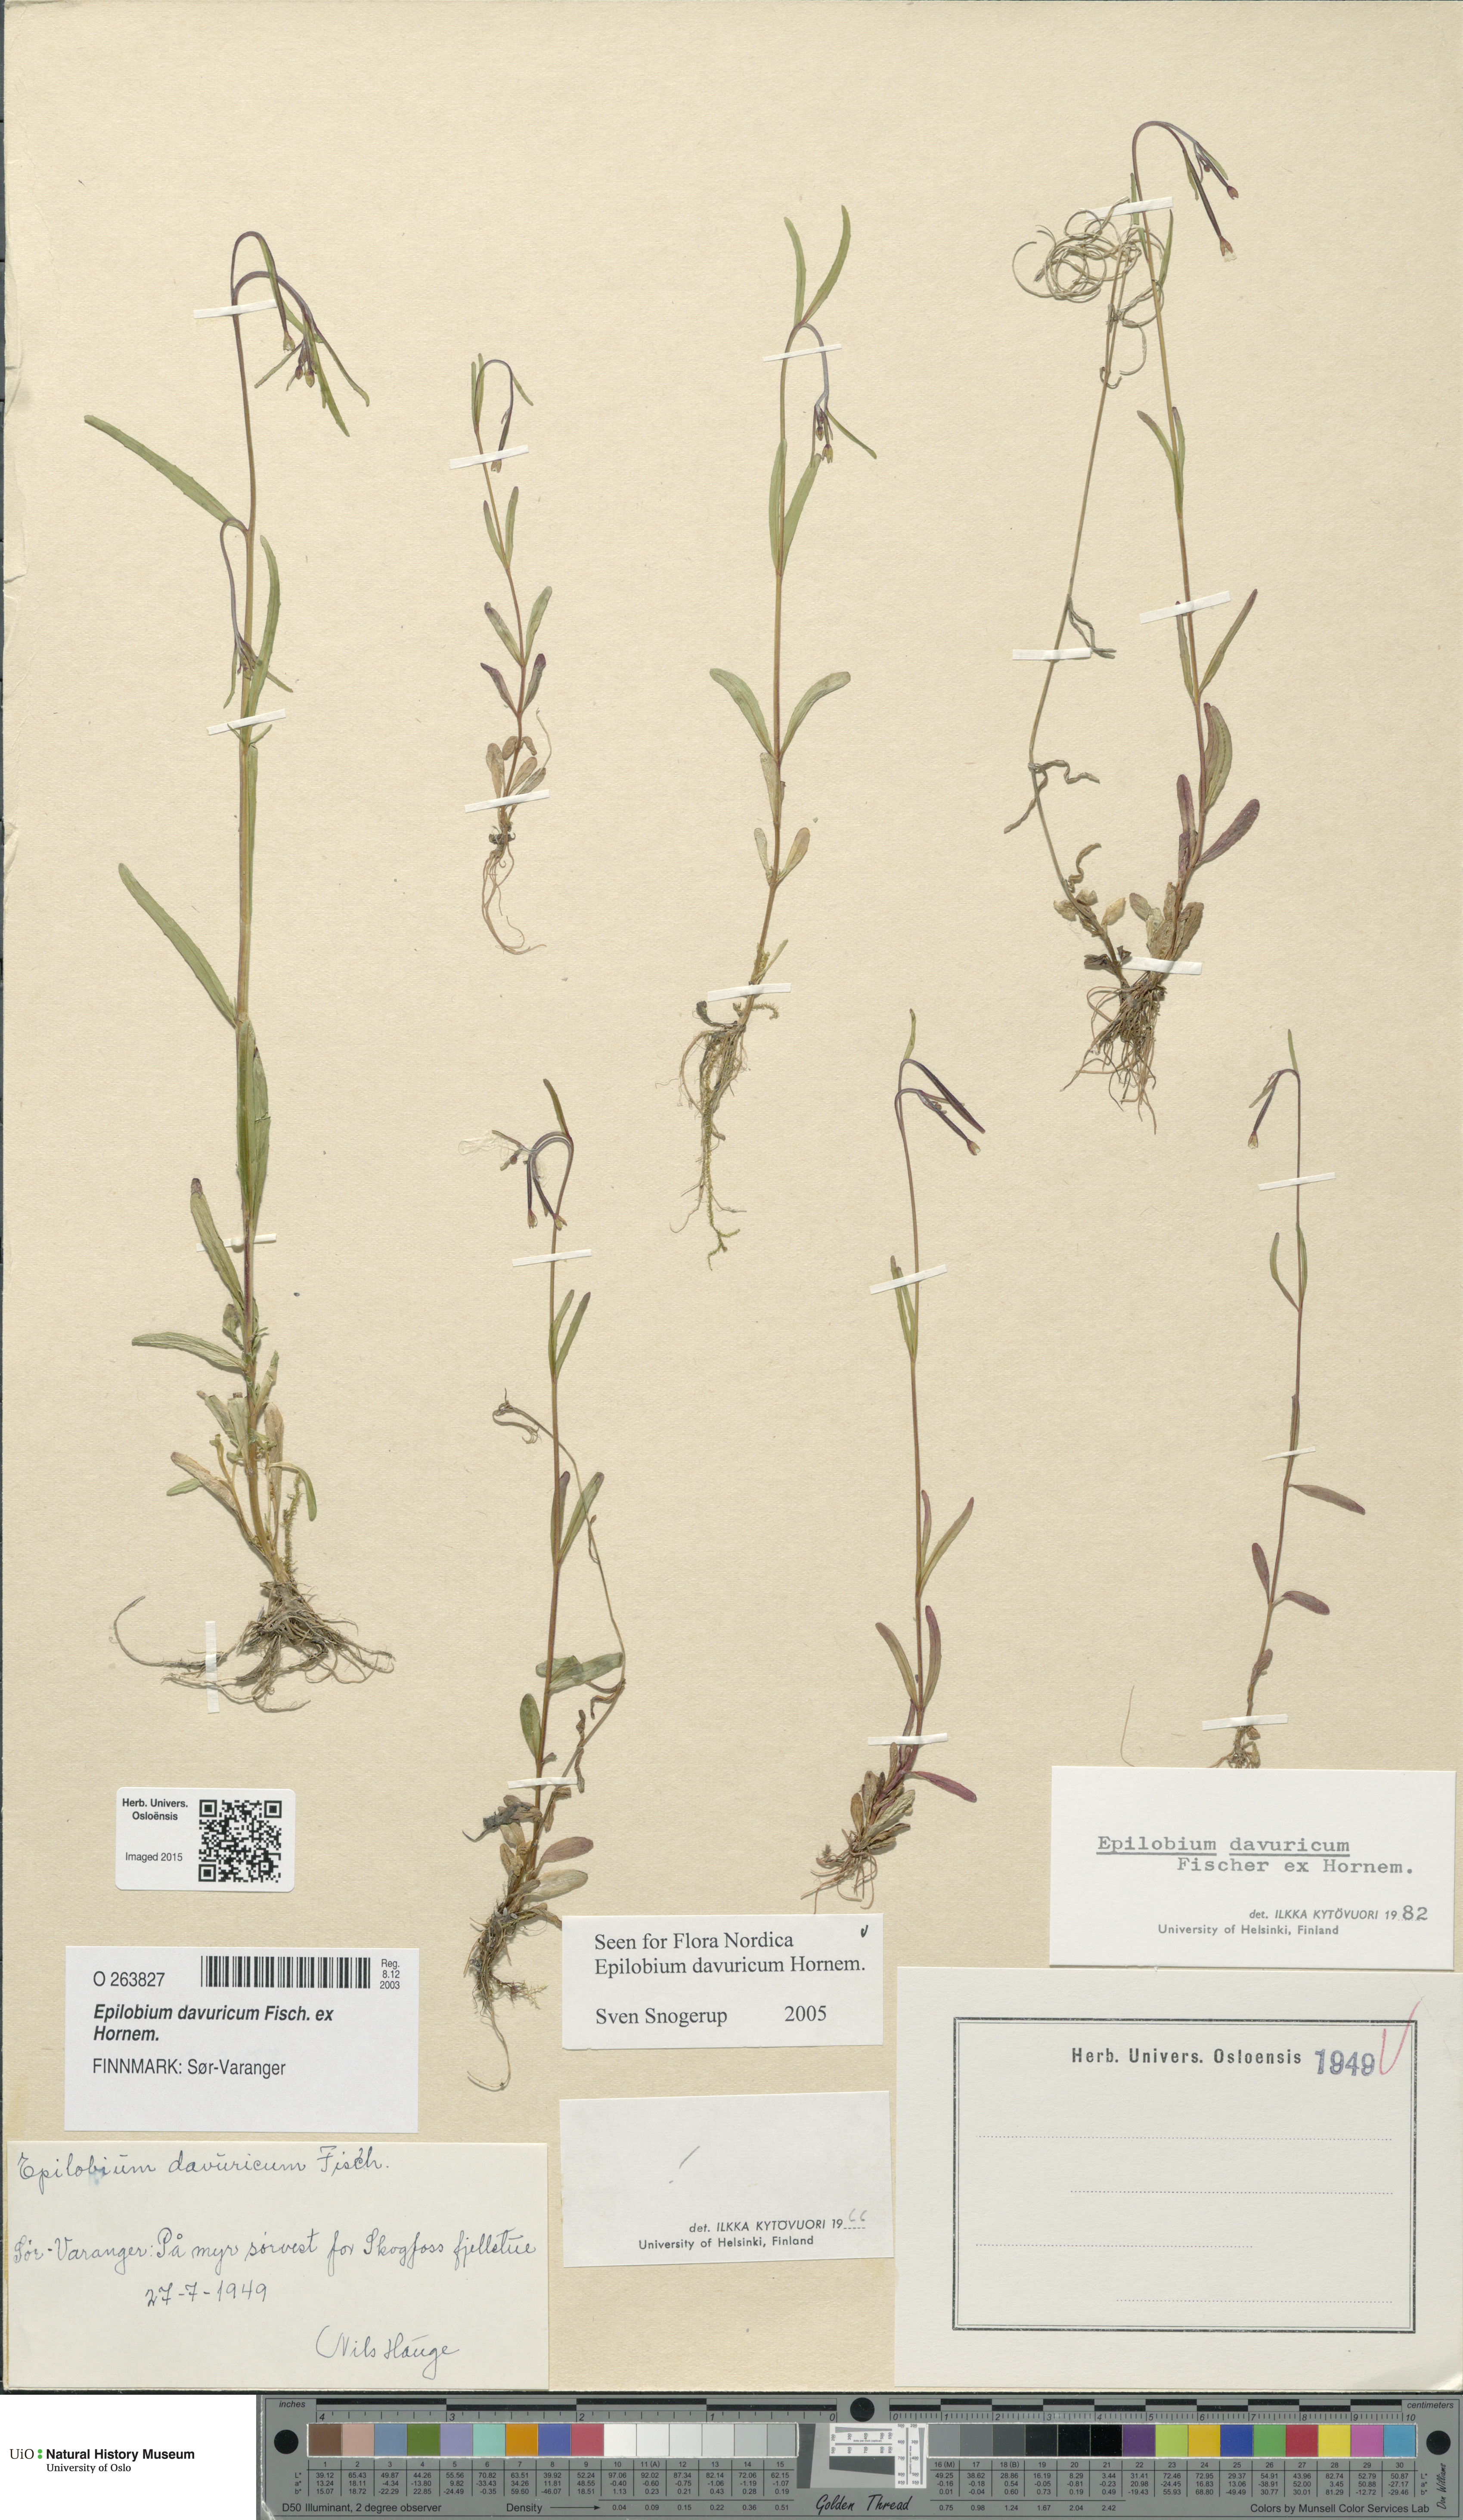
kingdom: Plantae
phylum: Tracheophyta
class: Magnoliopsida
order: Myrtales
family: Onagraceae
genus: Epilobium
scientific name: Epilobium davuricum
